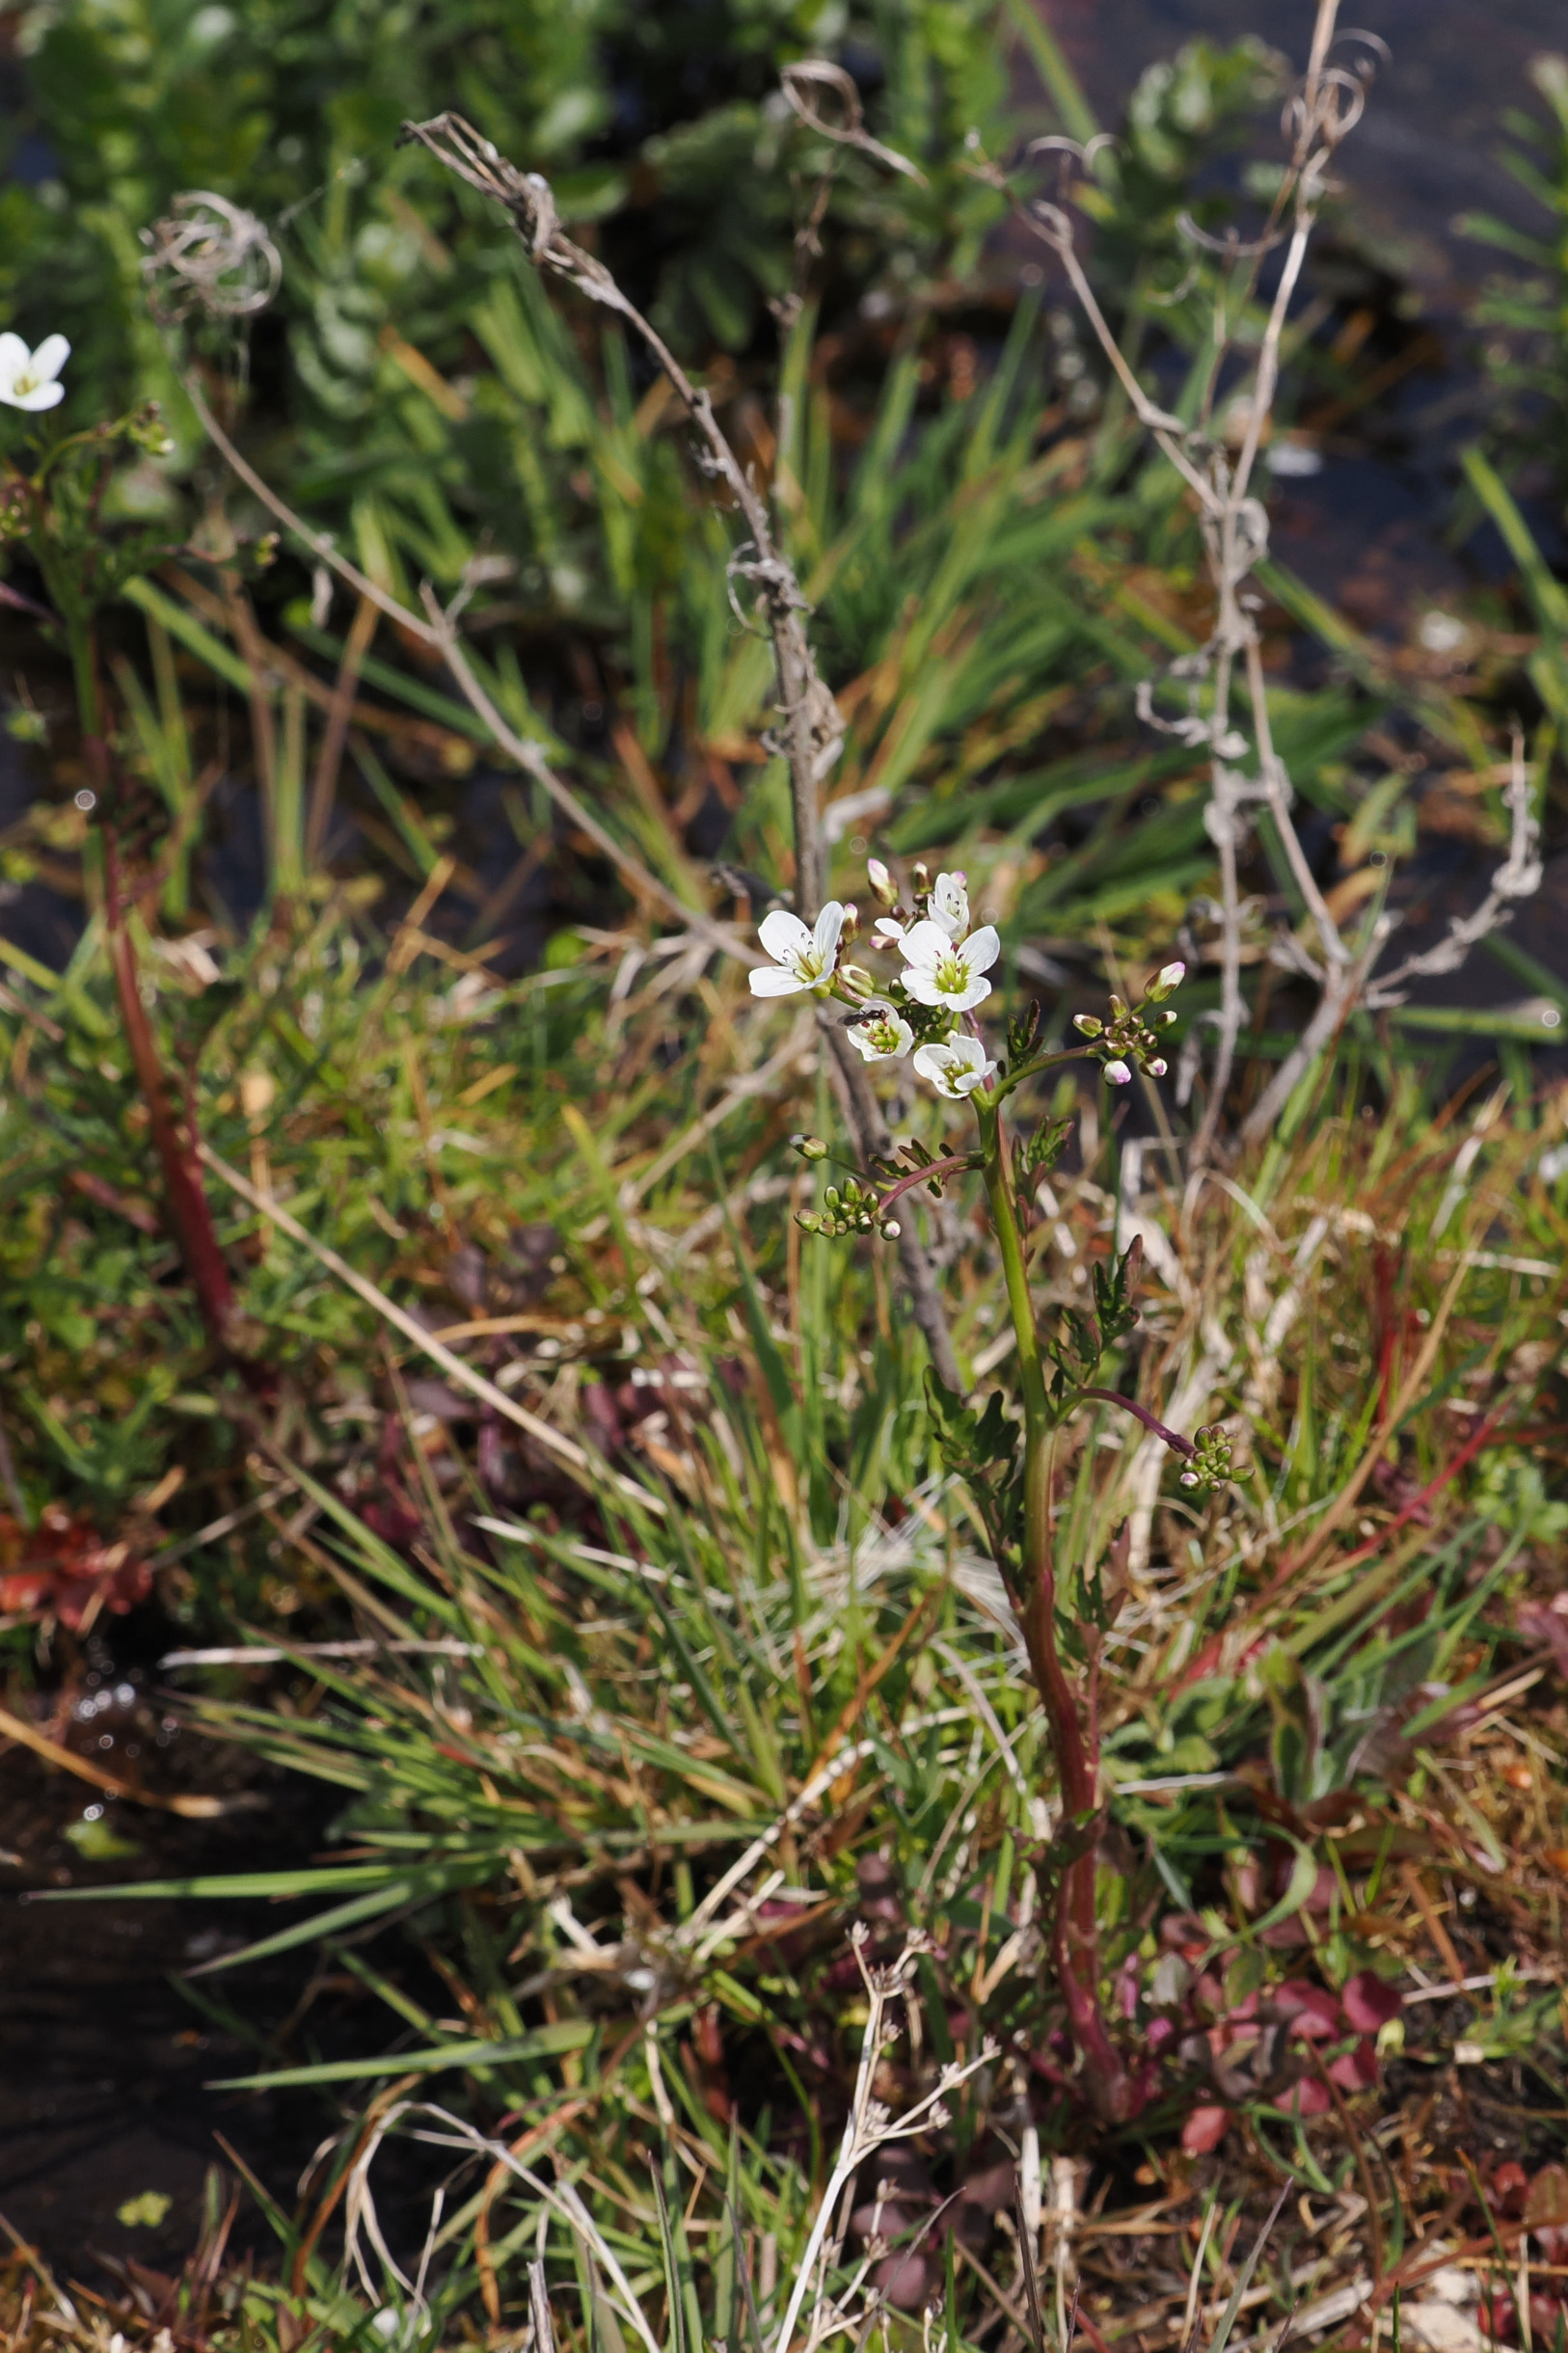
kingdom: Plantae
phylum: Tracheophyta
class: Magnoliopsida
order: Brassicales
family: Brassicaceae
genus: Cardamine
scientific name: Cardamine amara
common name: Vandkarse
